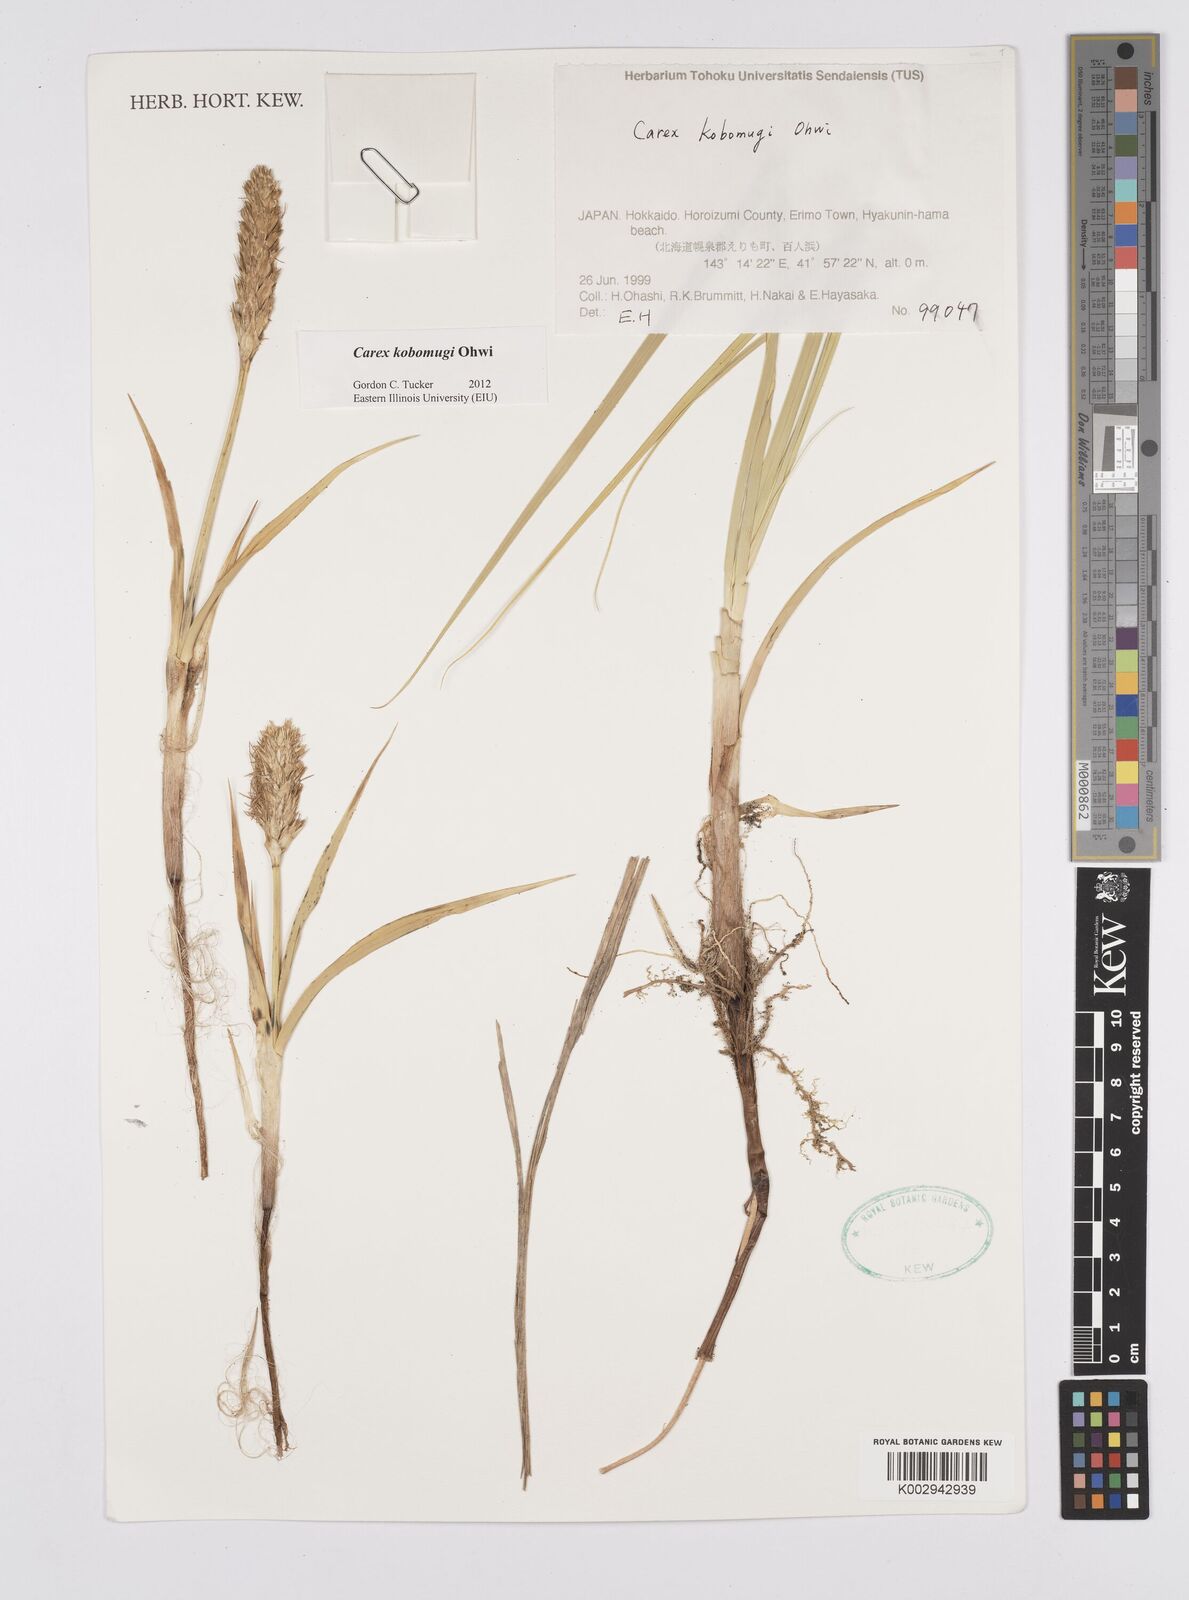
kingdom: Plantae
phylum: Tracheophyta
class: Liliopsida
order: Poales
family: Cyperaceae
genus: Carex
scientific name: Carex kobomugi
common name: Japanese sedge
